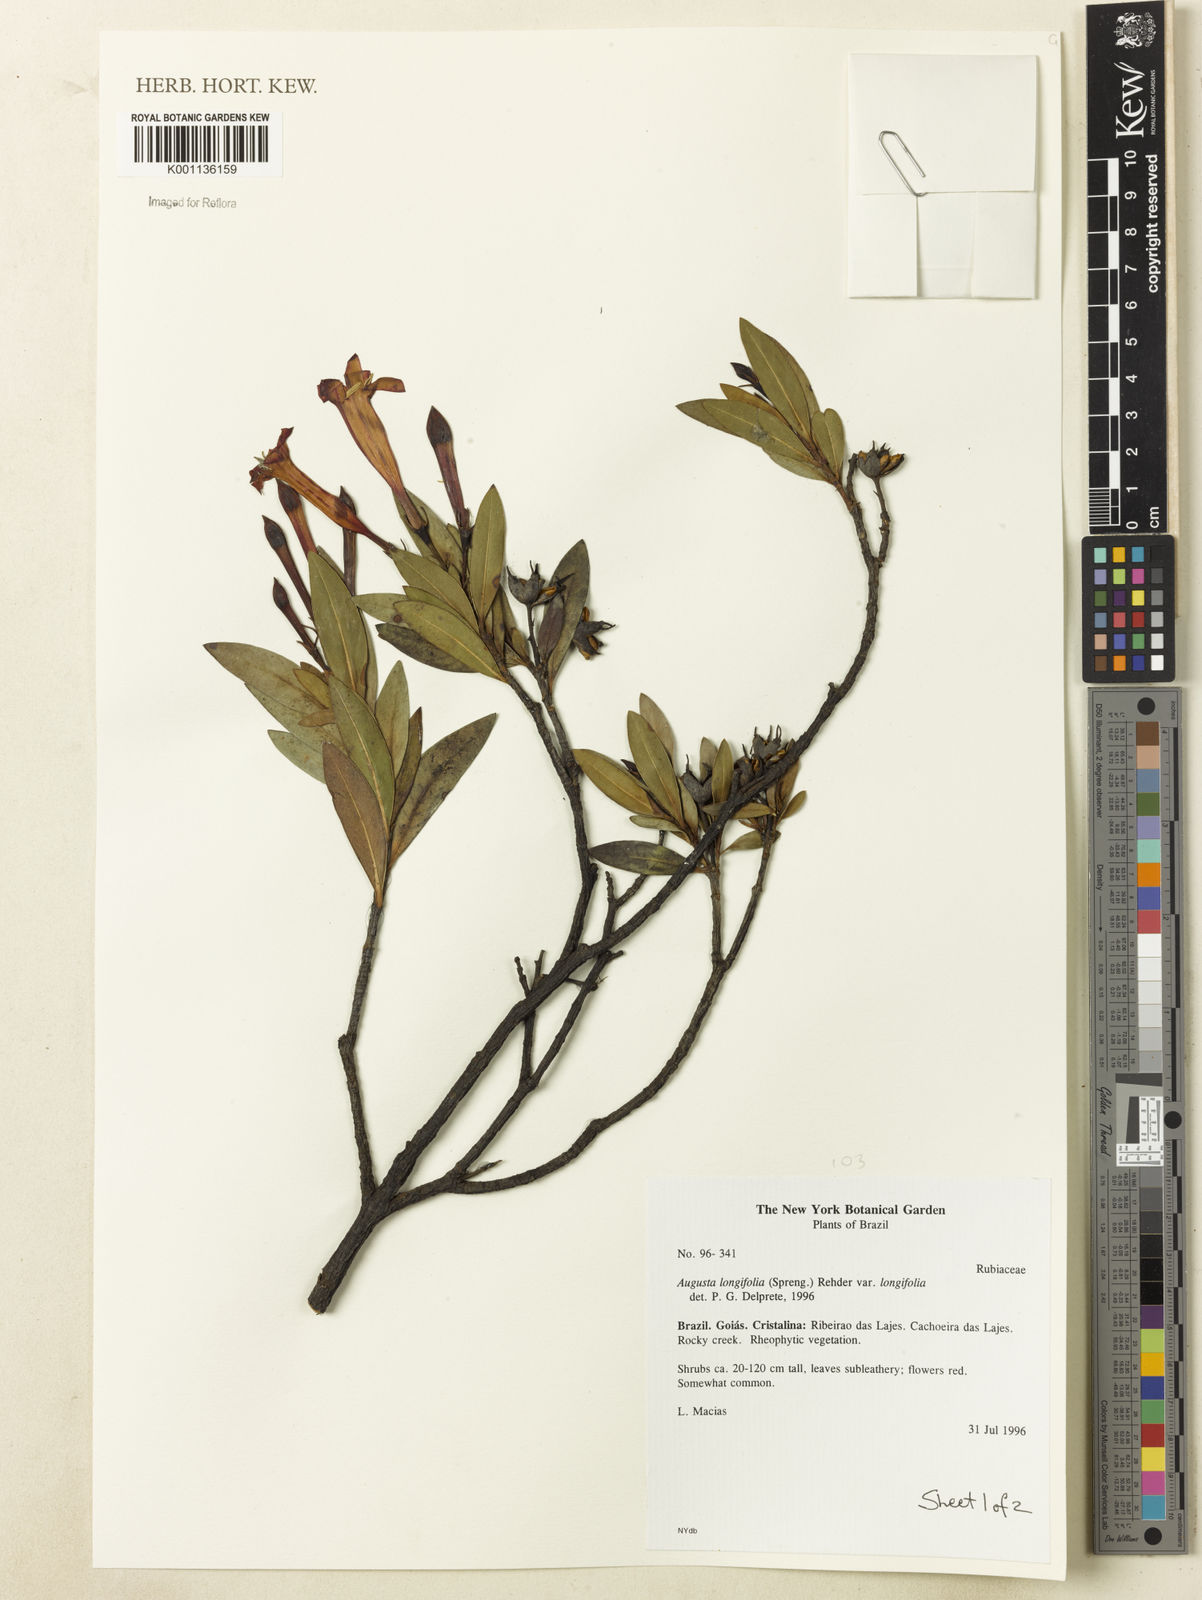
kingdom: Plantae
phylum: Tracheophyta
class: Magnoliopsida
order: Gentianales
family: Rubiaceae
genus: Augusta
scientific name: Augusta longifolia
